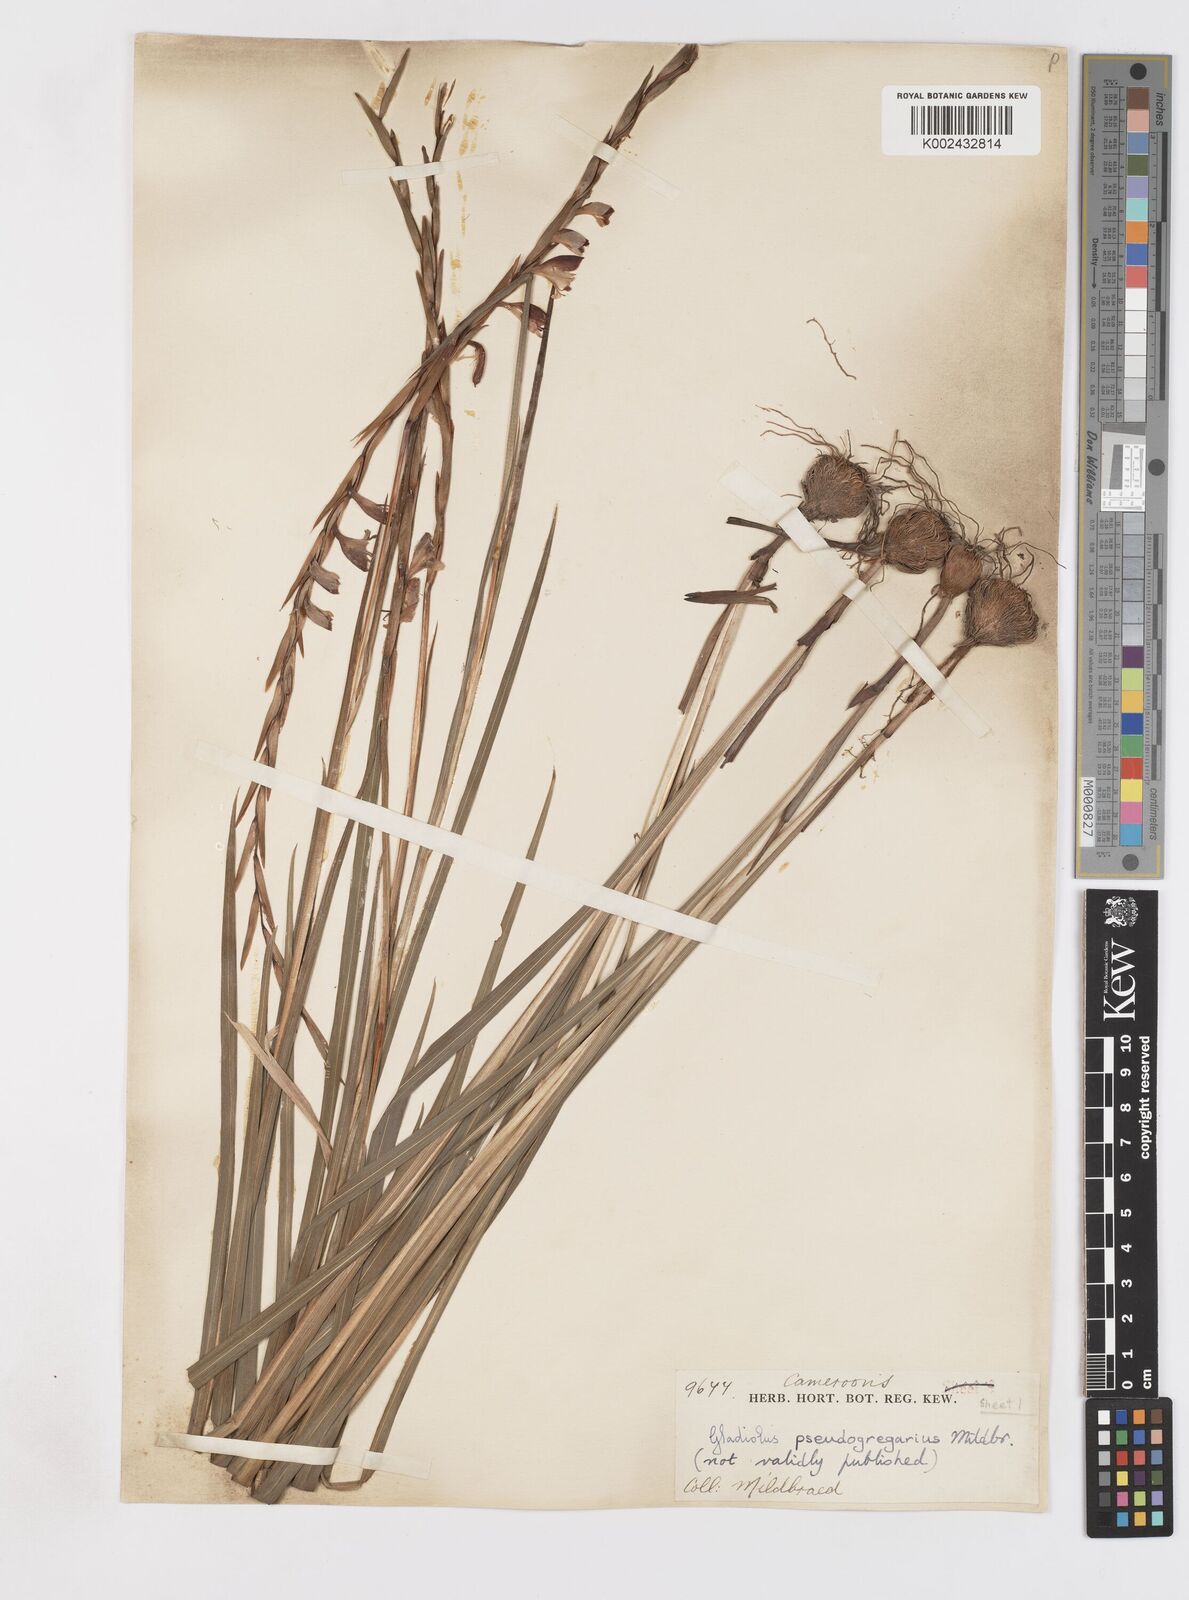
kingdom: Plantae
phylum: Tracheophyta
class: Liliopsida
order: Asparagales
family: Iridaceae
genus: Gladiolus
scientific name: Gladiolus gregarius
